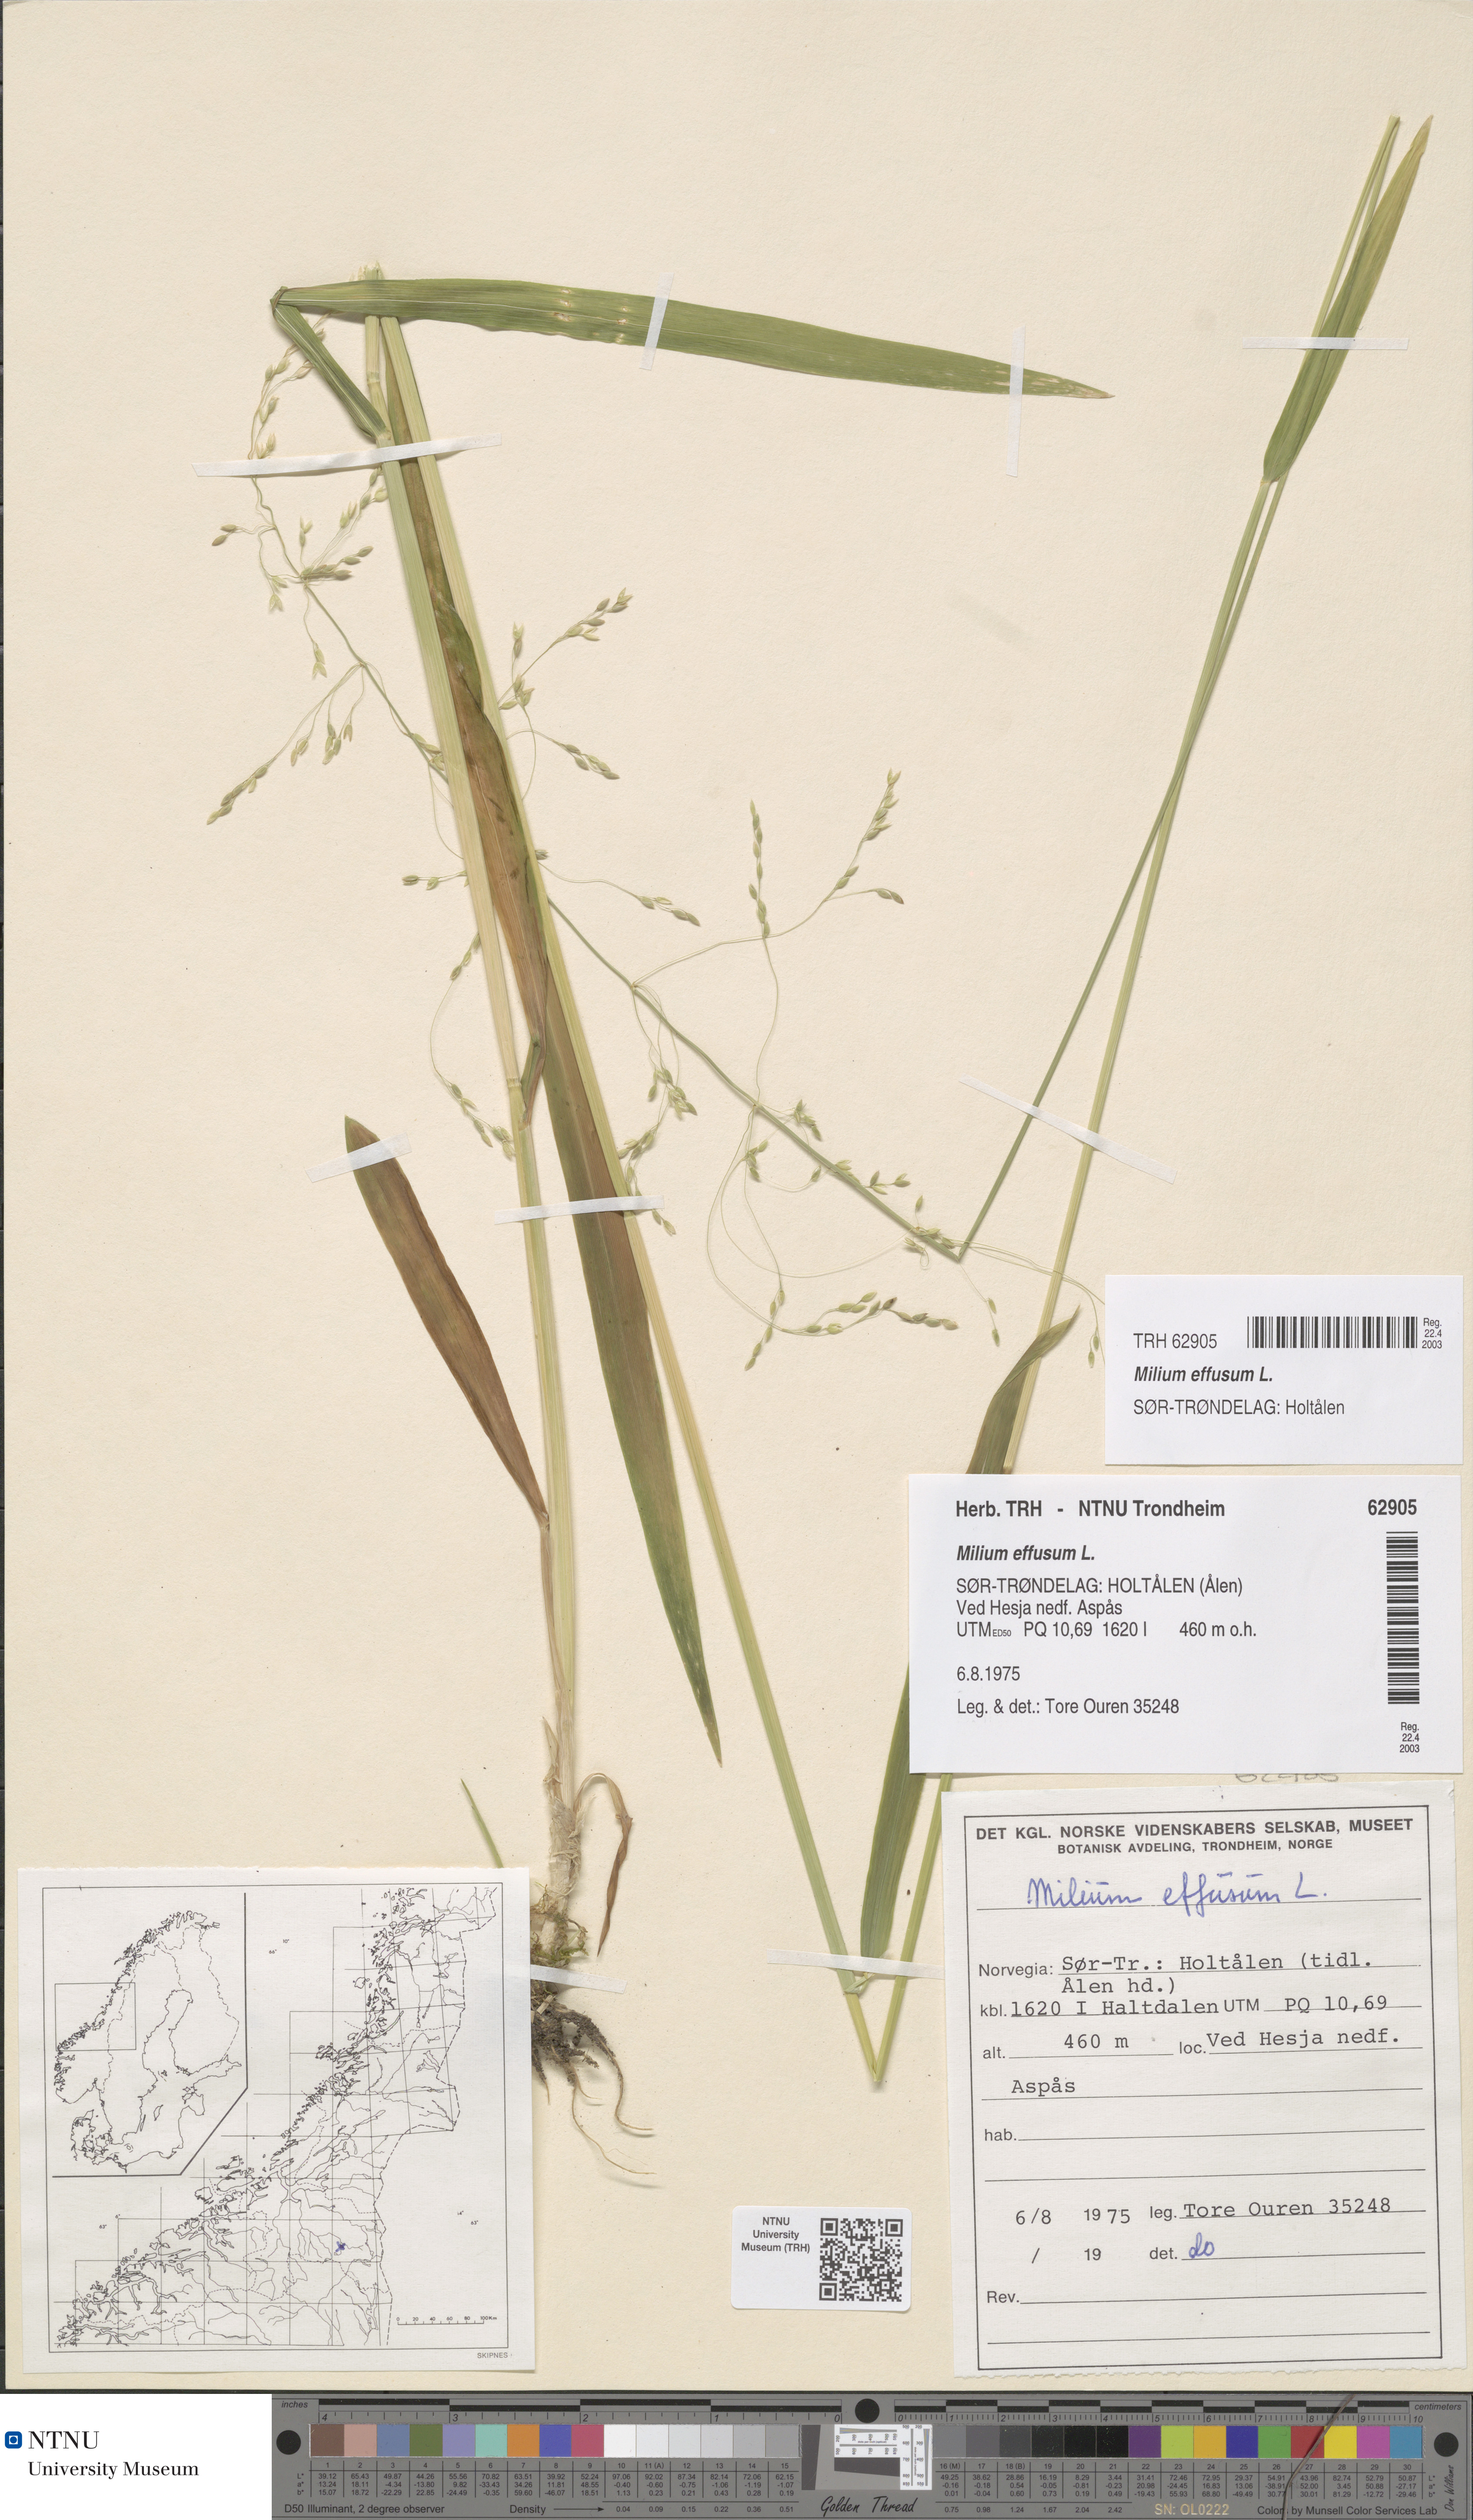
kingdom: Plantae
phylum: Tracheophyta
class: Liliopsida
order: Poales
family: Poaceae
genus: Milium
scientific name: Milium effusum
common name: Wood millet
